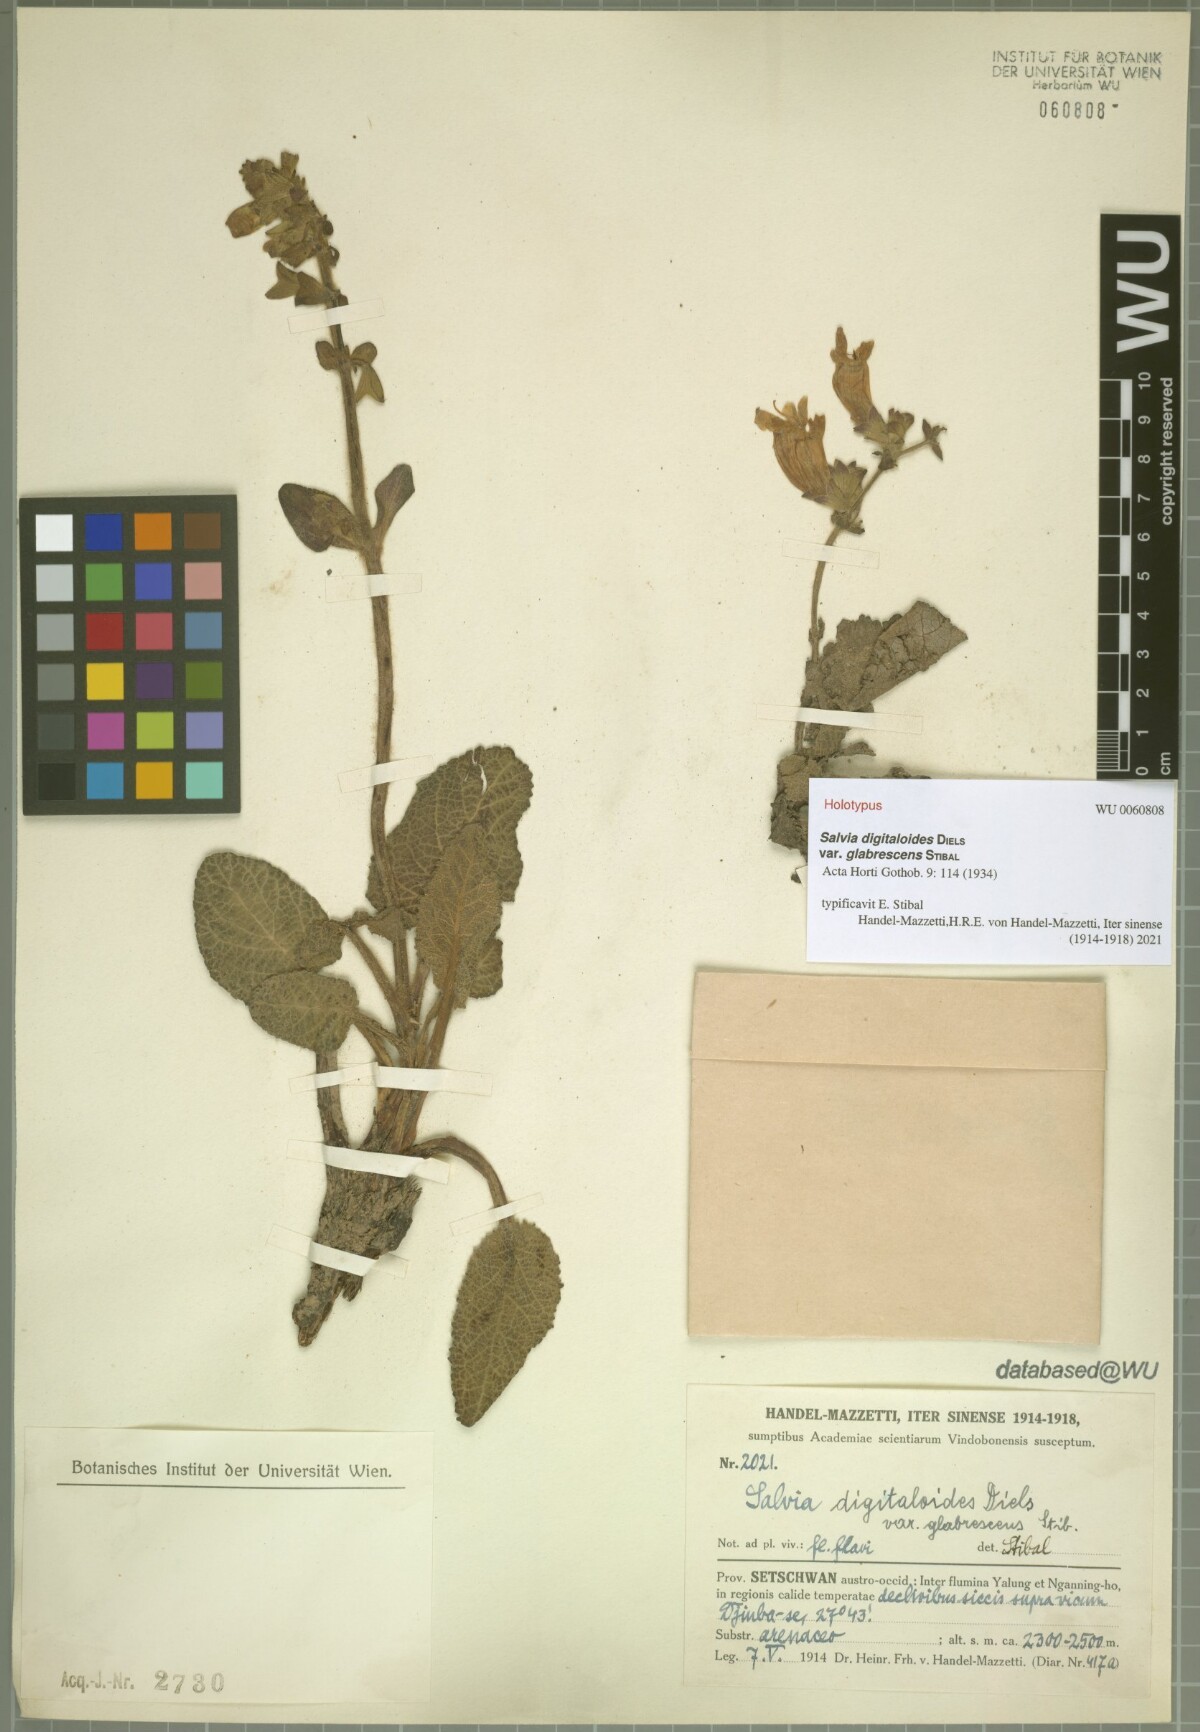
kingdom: Plantae
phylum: Tracheophyta
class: Magnoliopsida
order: Lamiales
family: Lamiaceae
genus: Salvia
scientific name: Salvia digitaloides
